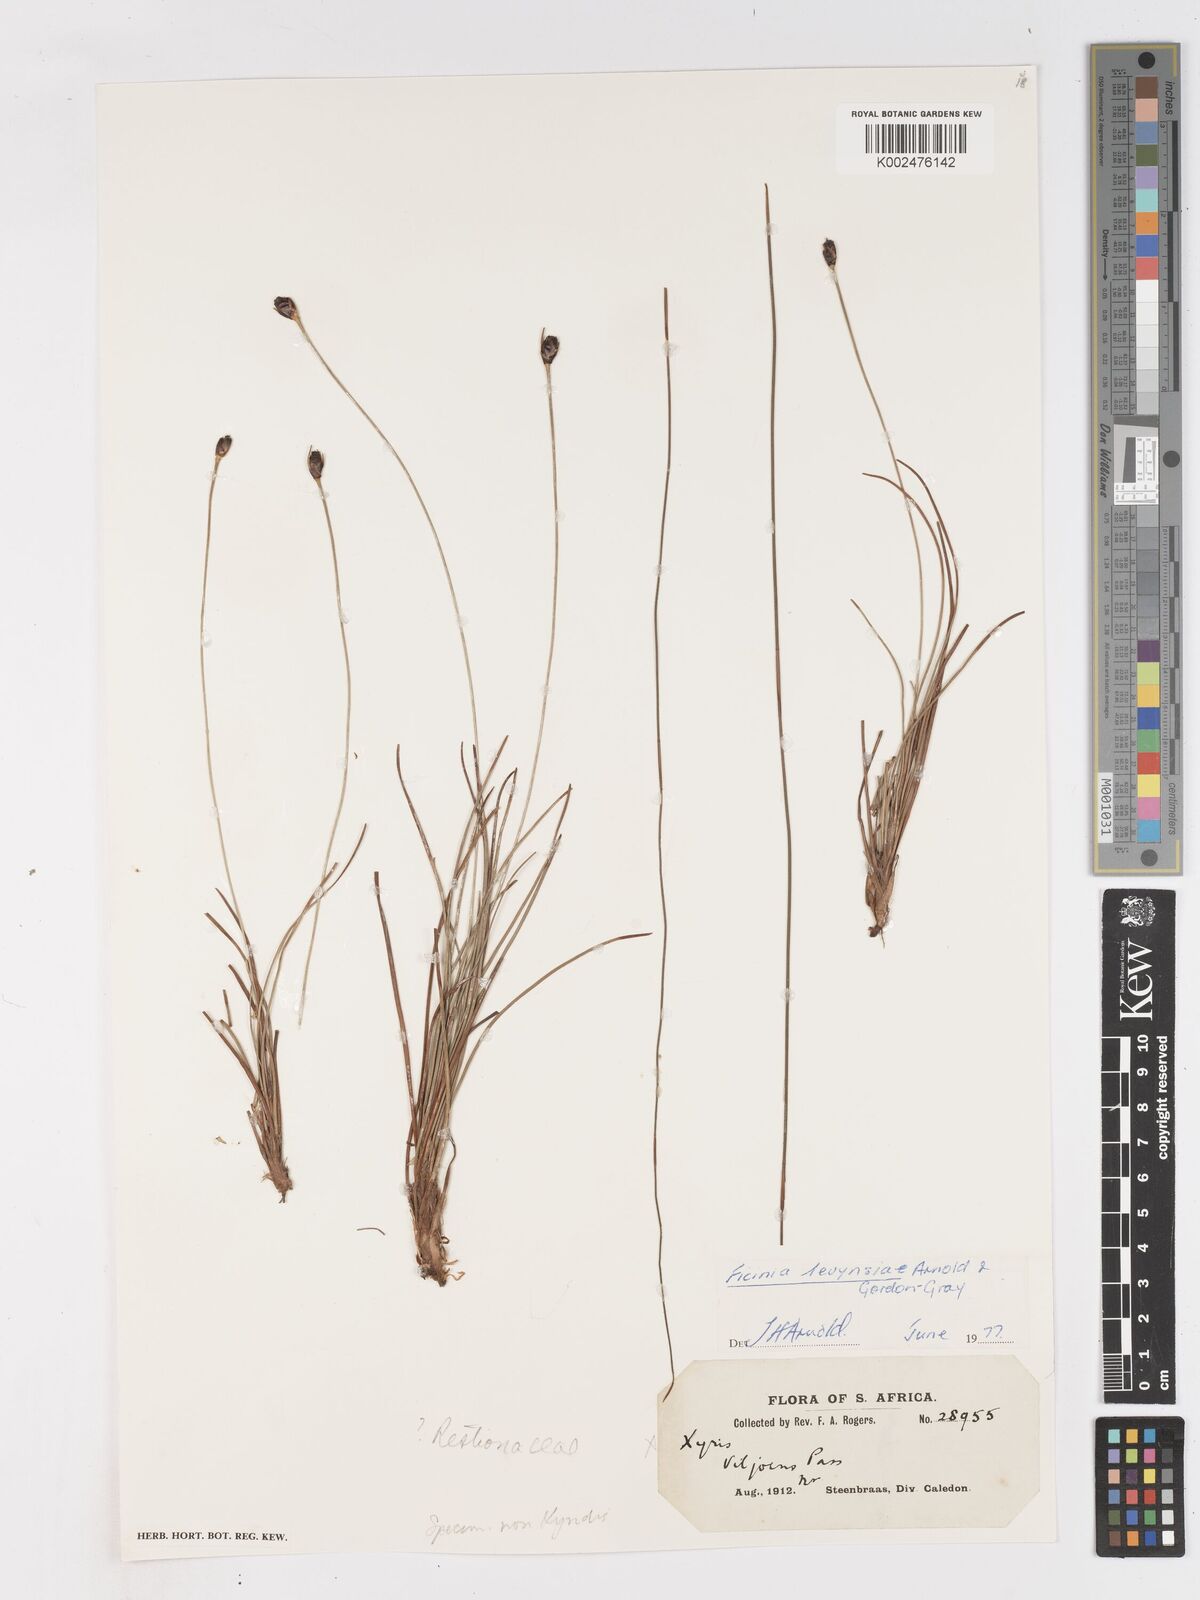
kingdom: Plantae
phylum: Tracheophyta
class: Liliopsida
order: Poales
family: Cyperaceae
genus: Ficinia
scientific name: Ficinia levynsiae
